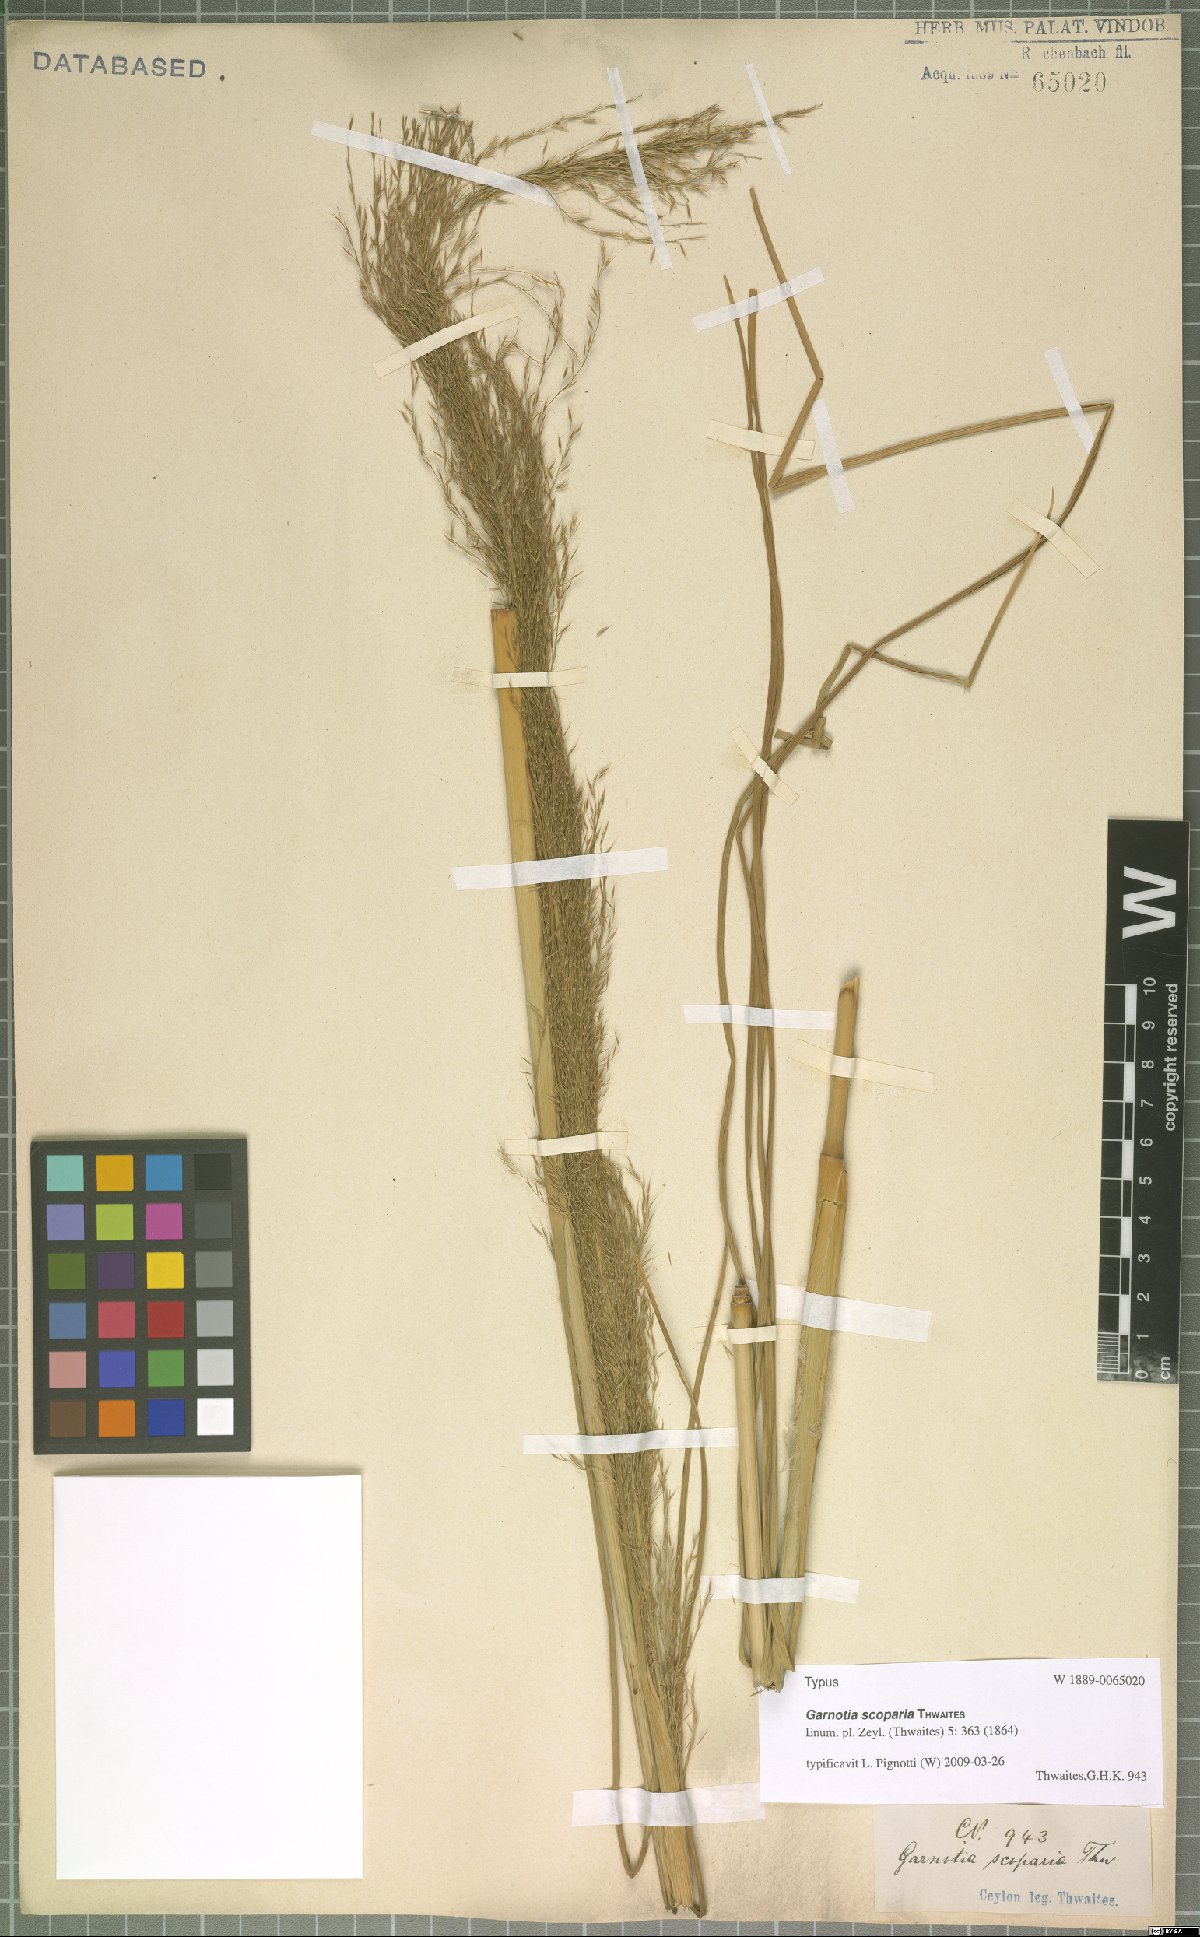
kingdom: Plantae
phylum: Tracheophyta
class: Liliopsida
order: Poales
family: Poaceae
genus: Garnotia
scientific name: Garnotia scoparia
